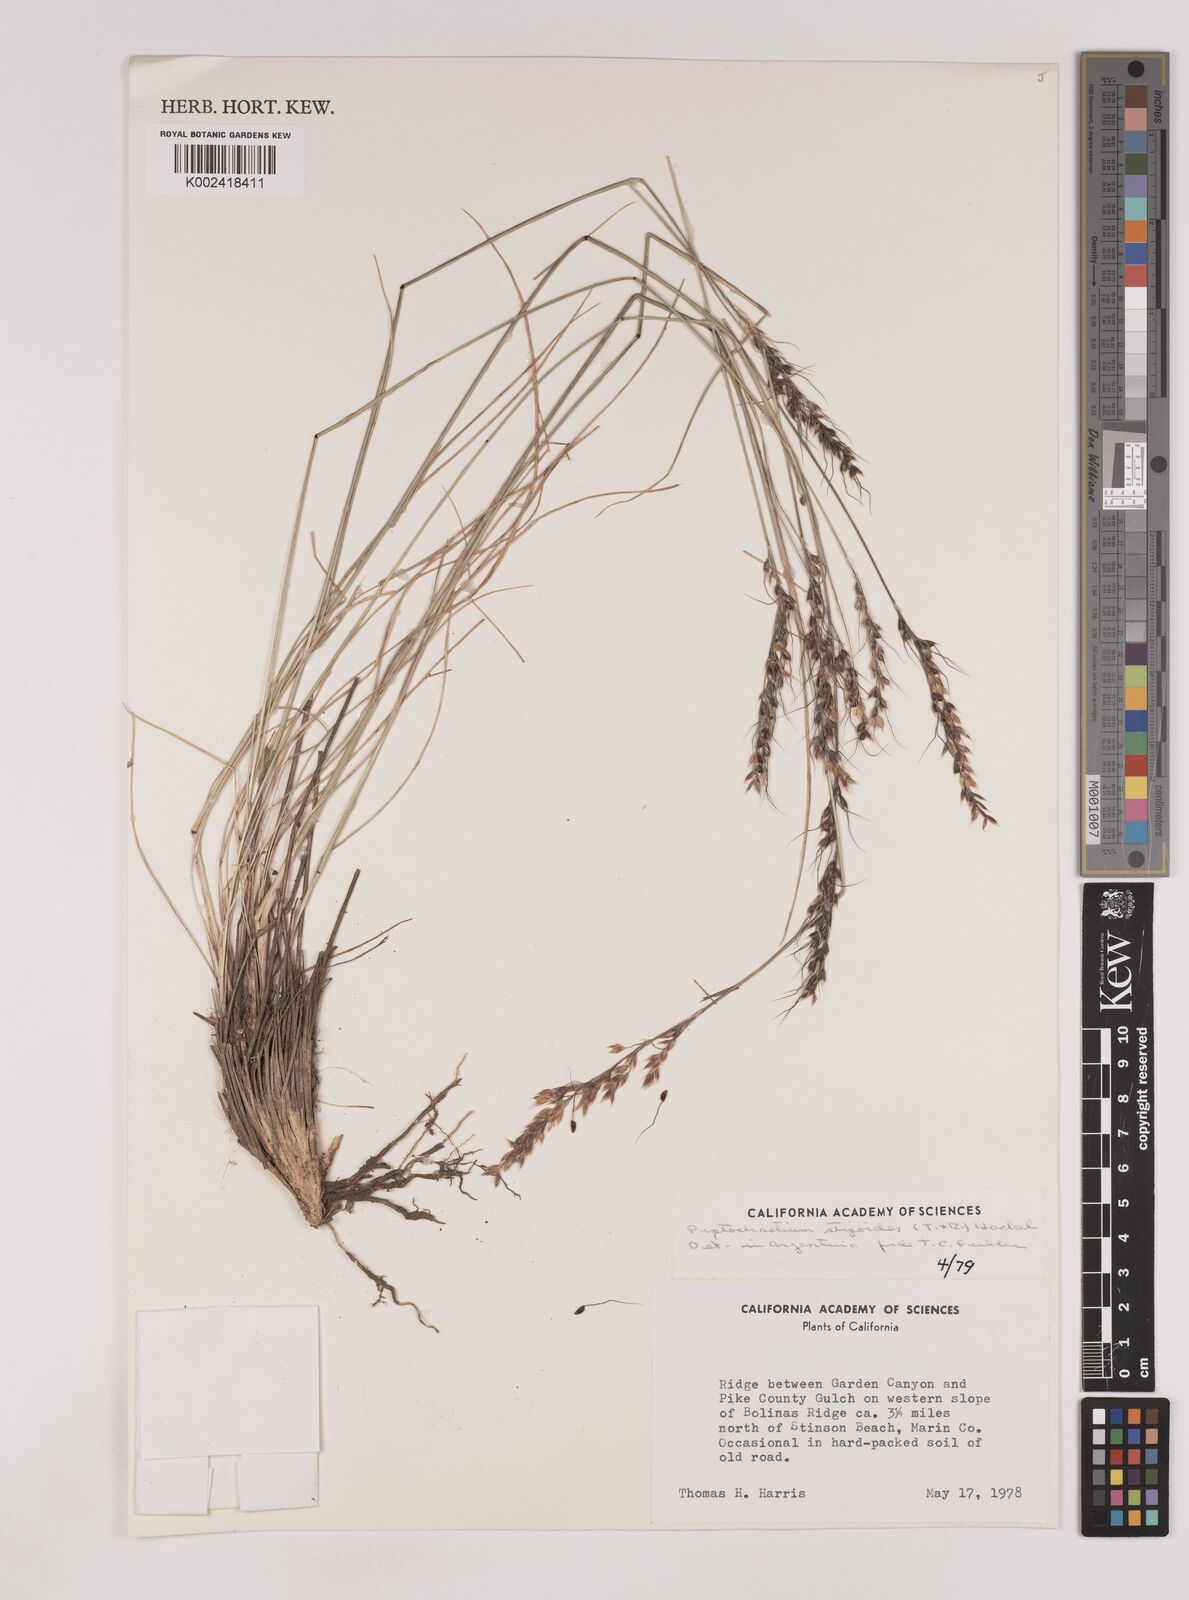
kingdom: Plantae
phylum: Tracheophyta
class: Liliopsida
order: Poales
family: Poaceae
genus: Piptochaetium
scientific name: Piptochaetium stipoides
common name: Purple speargrass
